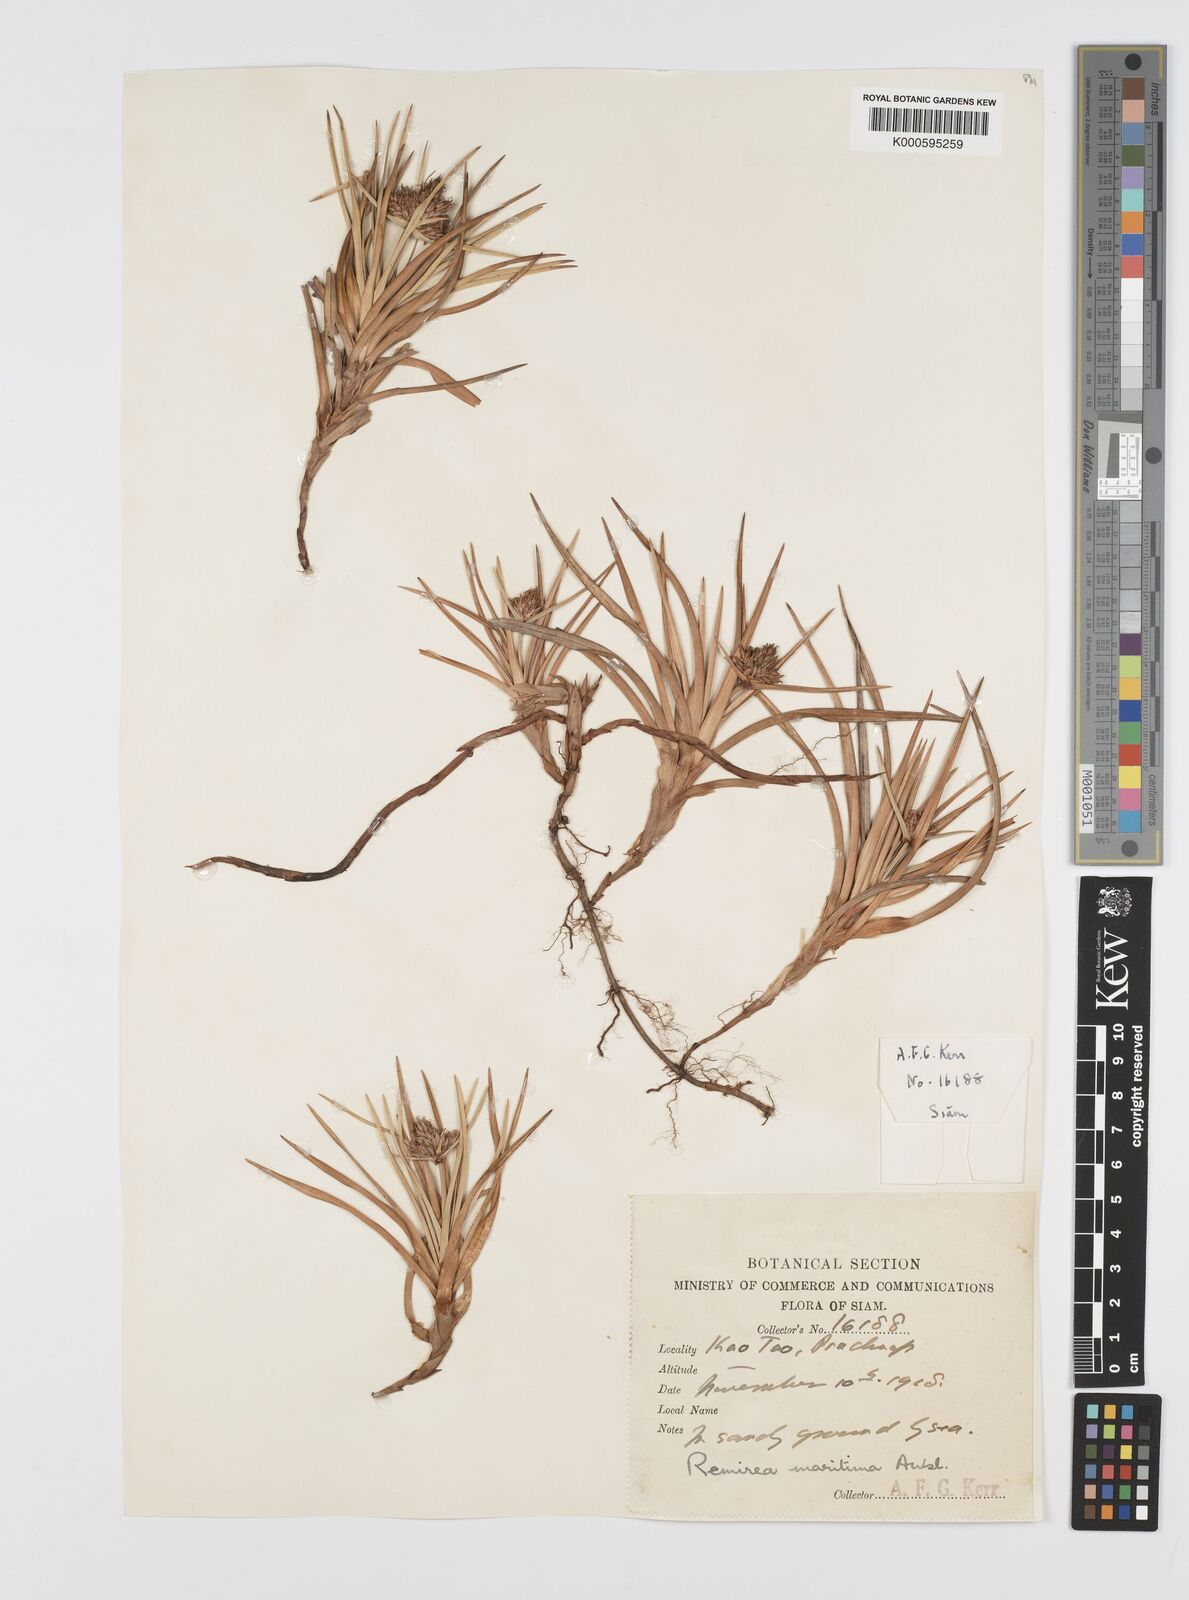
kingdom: Plantae
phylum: Tracheophyta
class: Liliopsida
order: Poales
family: Cyperaceae
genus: Cyperus
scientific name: Cyperus pedunculatus
